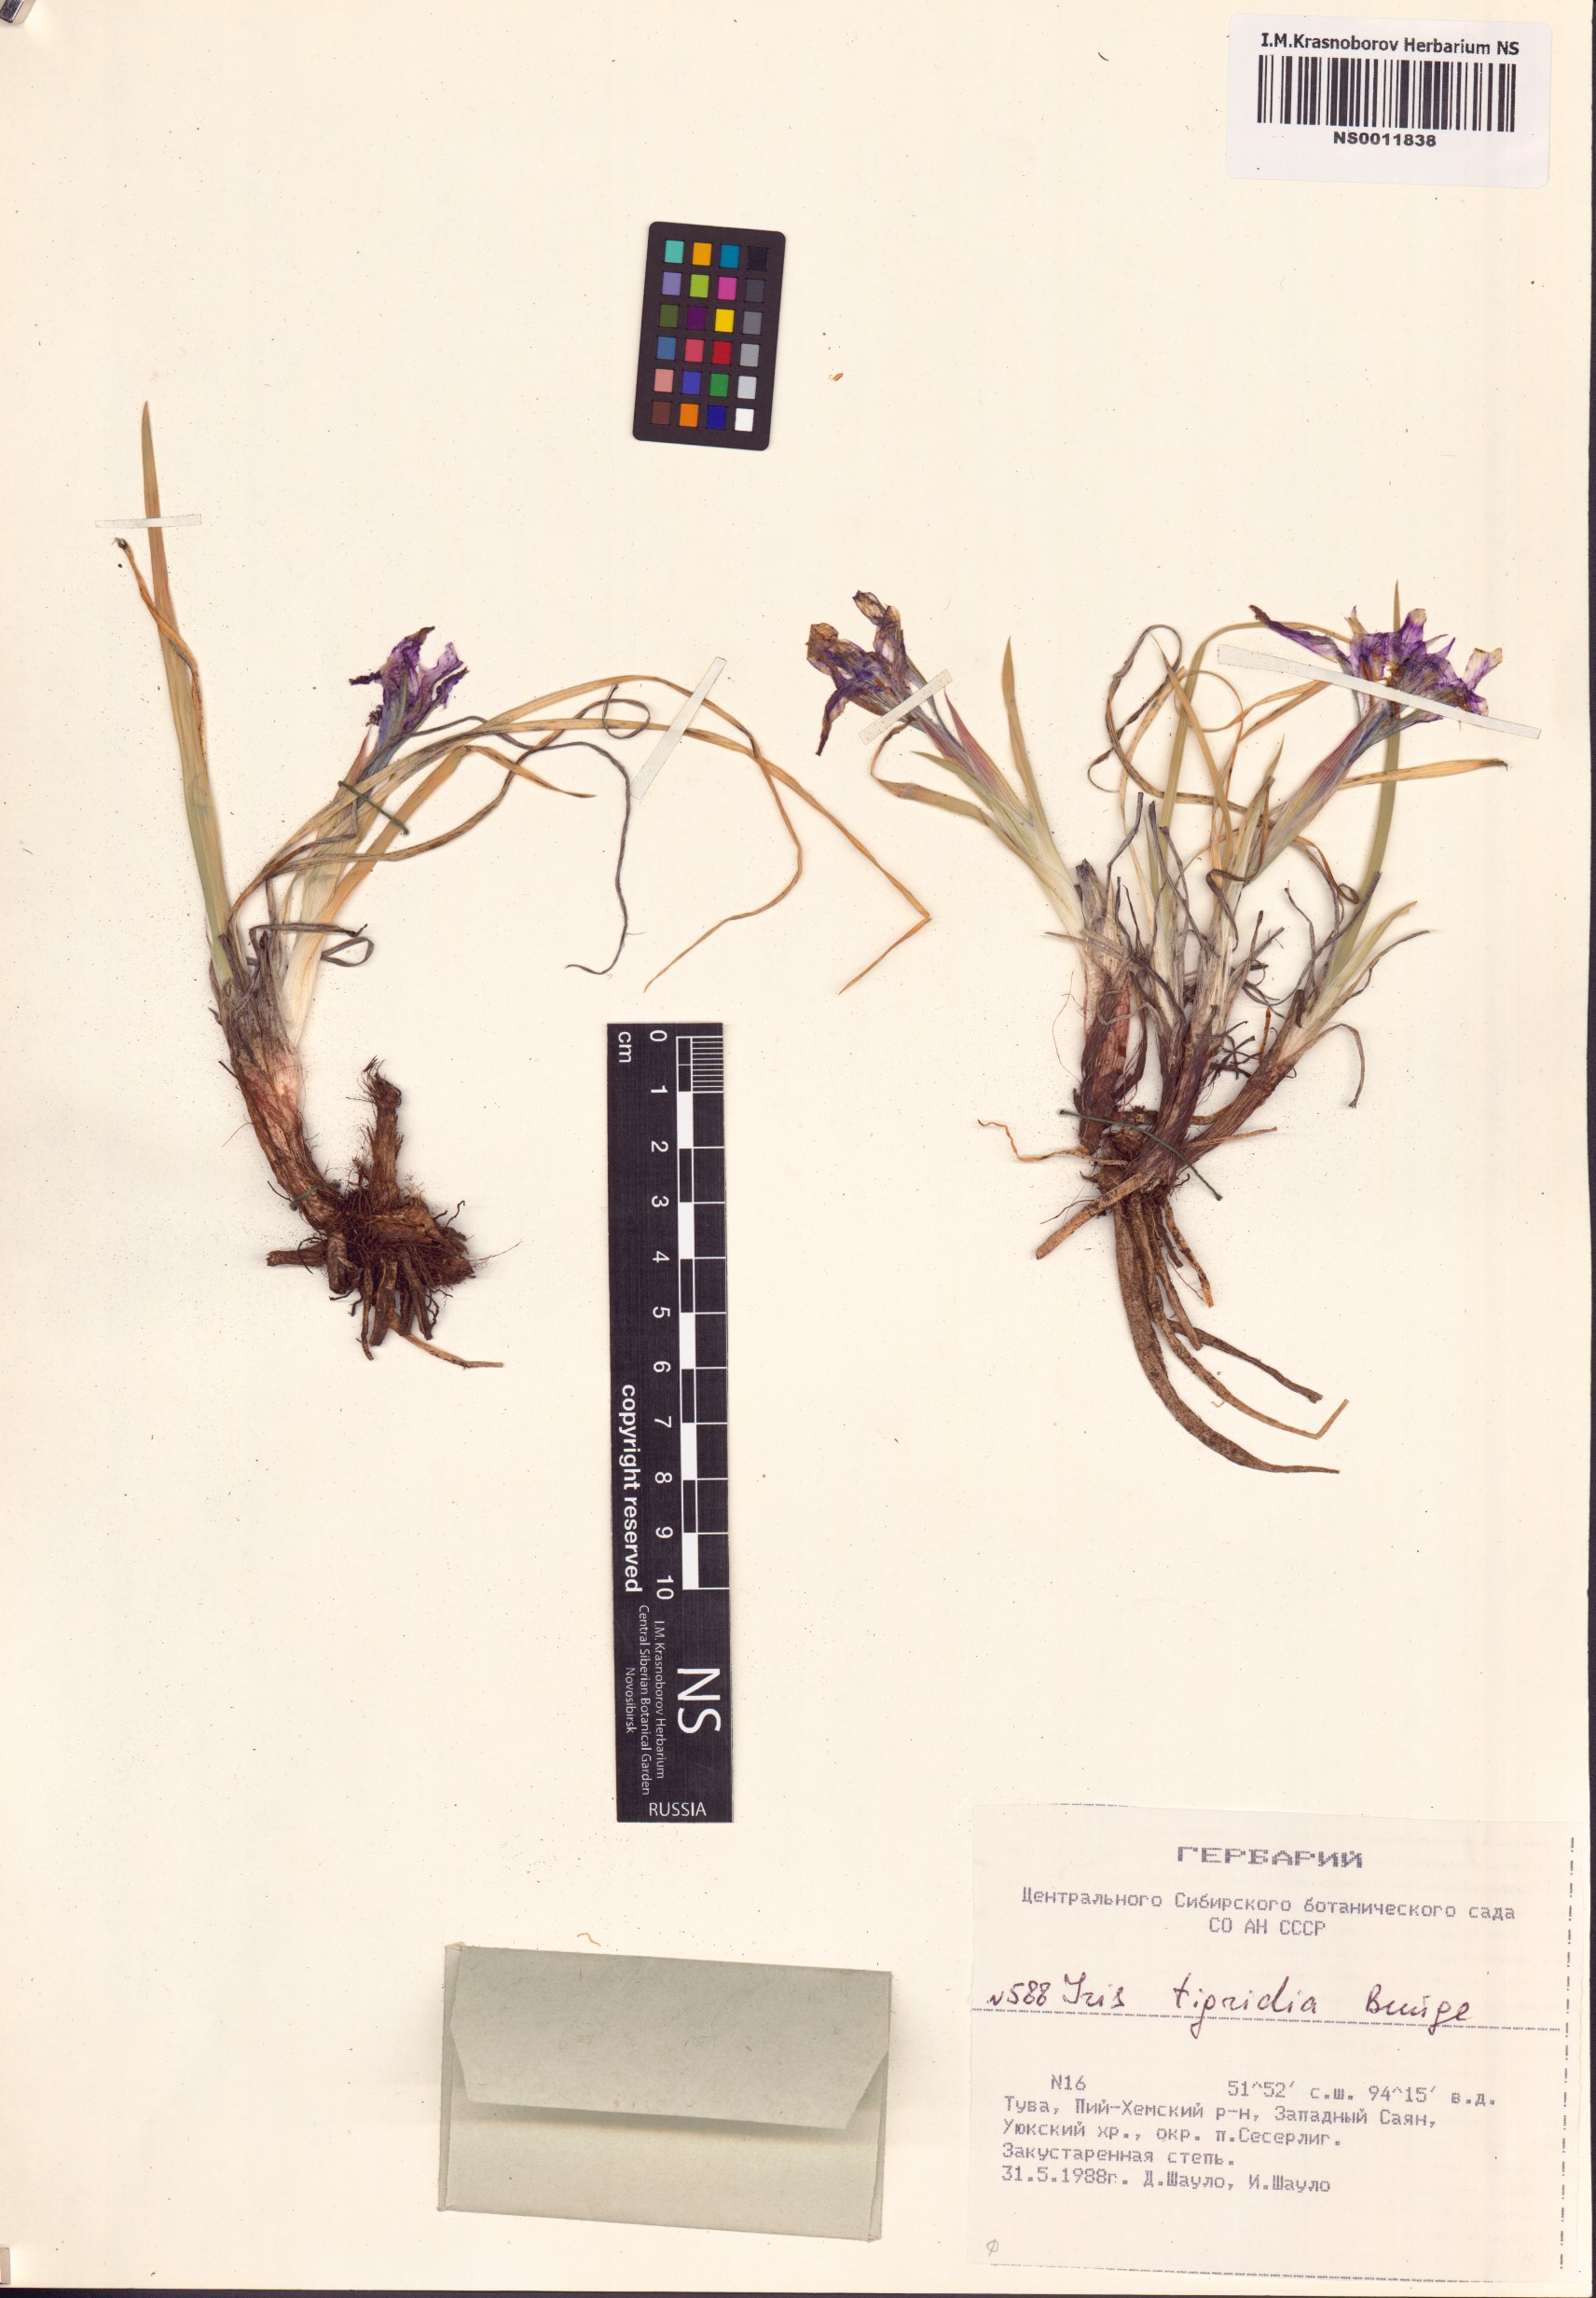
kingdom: Plantae
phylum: Tracheophyta
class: Liliopsida
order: Asparagales
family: Iridaceae
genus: Iris
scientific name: Iris tigridia
